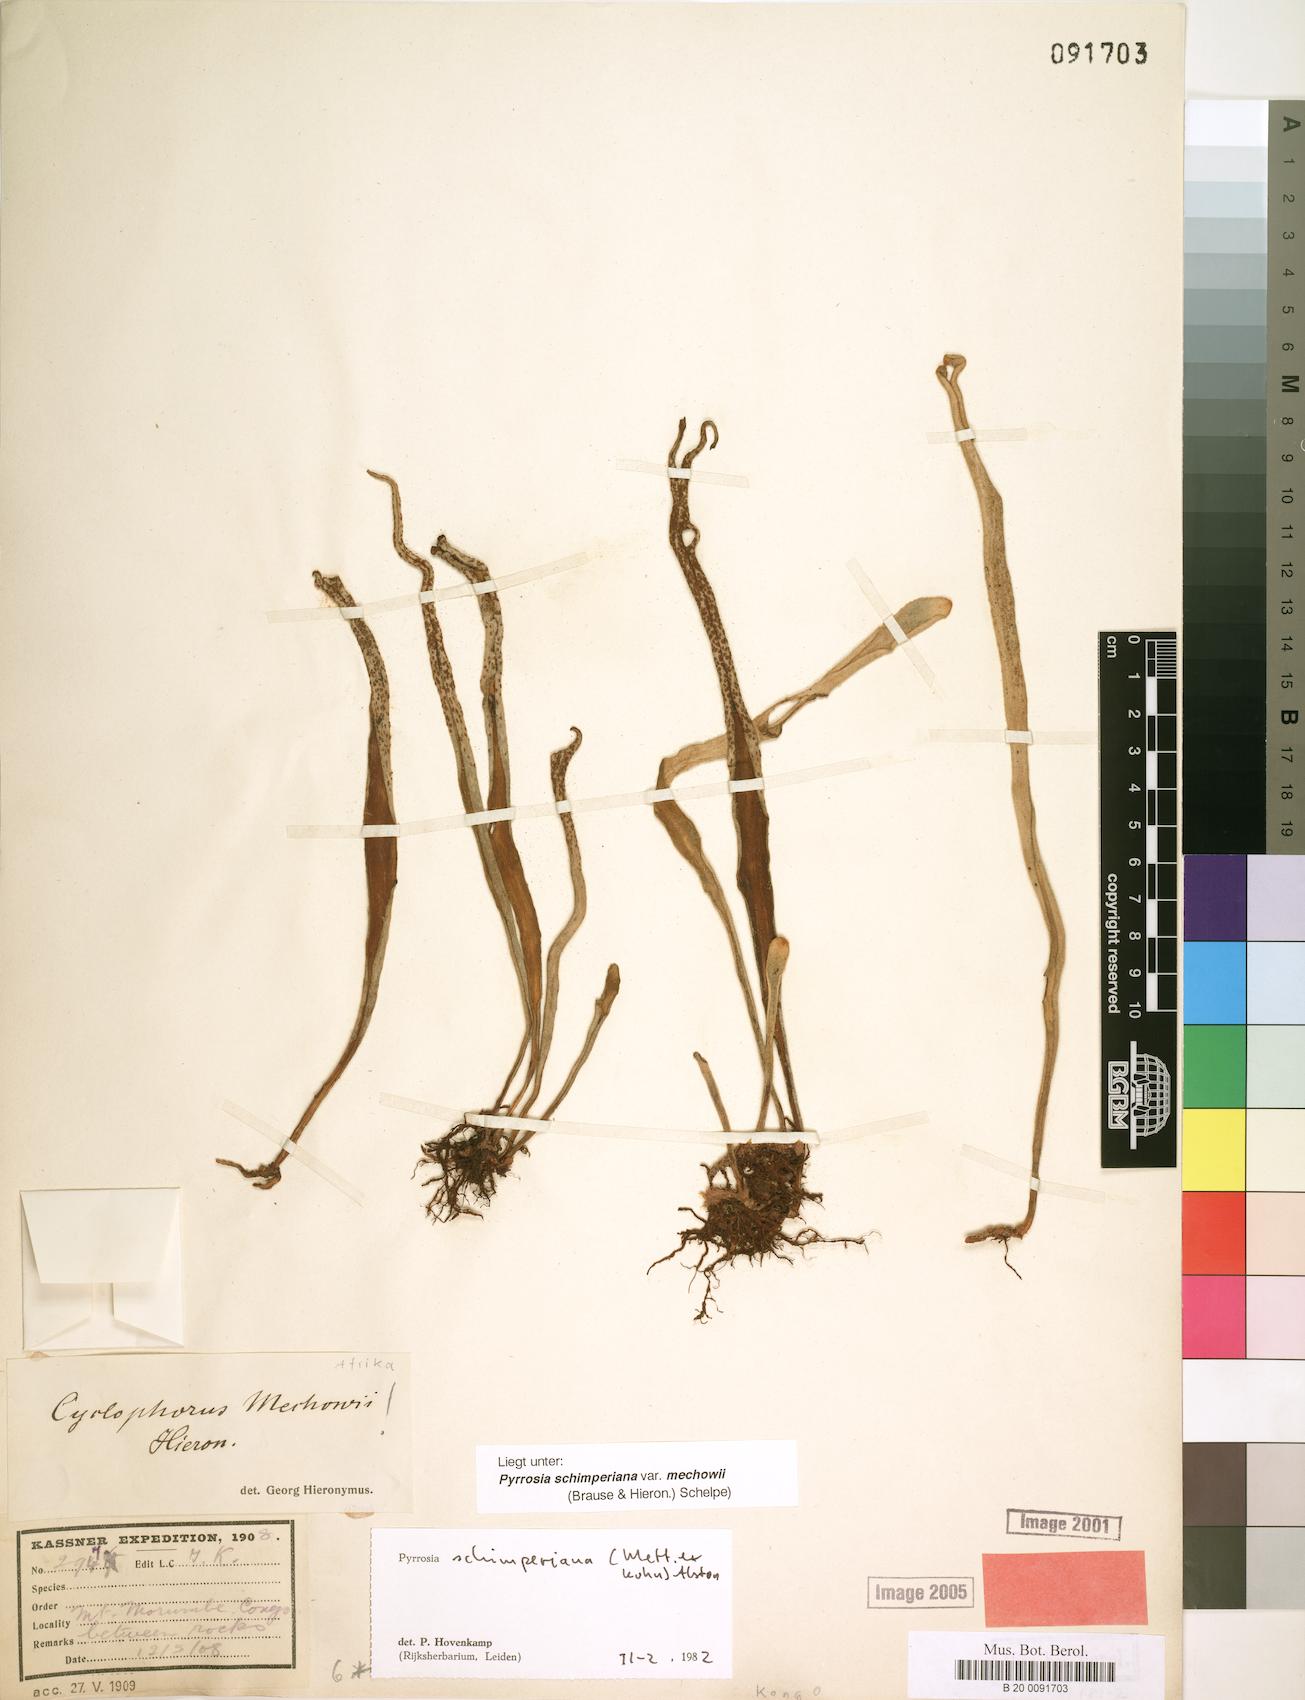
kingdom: Plantae
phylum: Tracheophyta
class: Polypodiopsida
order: Polypodiales
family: Polypodiaceae
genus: Hovenkampia
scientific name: Hovenkampia schimperiana
